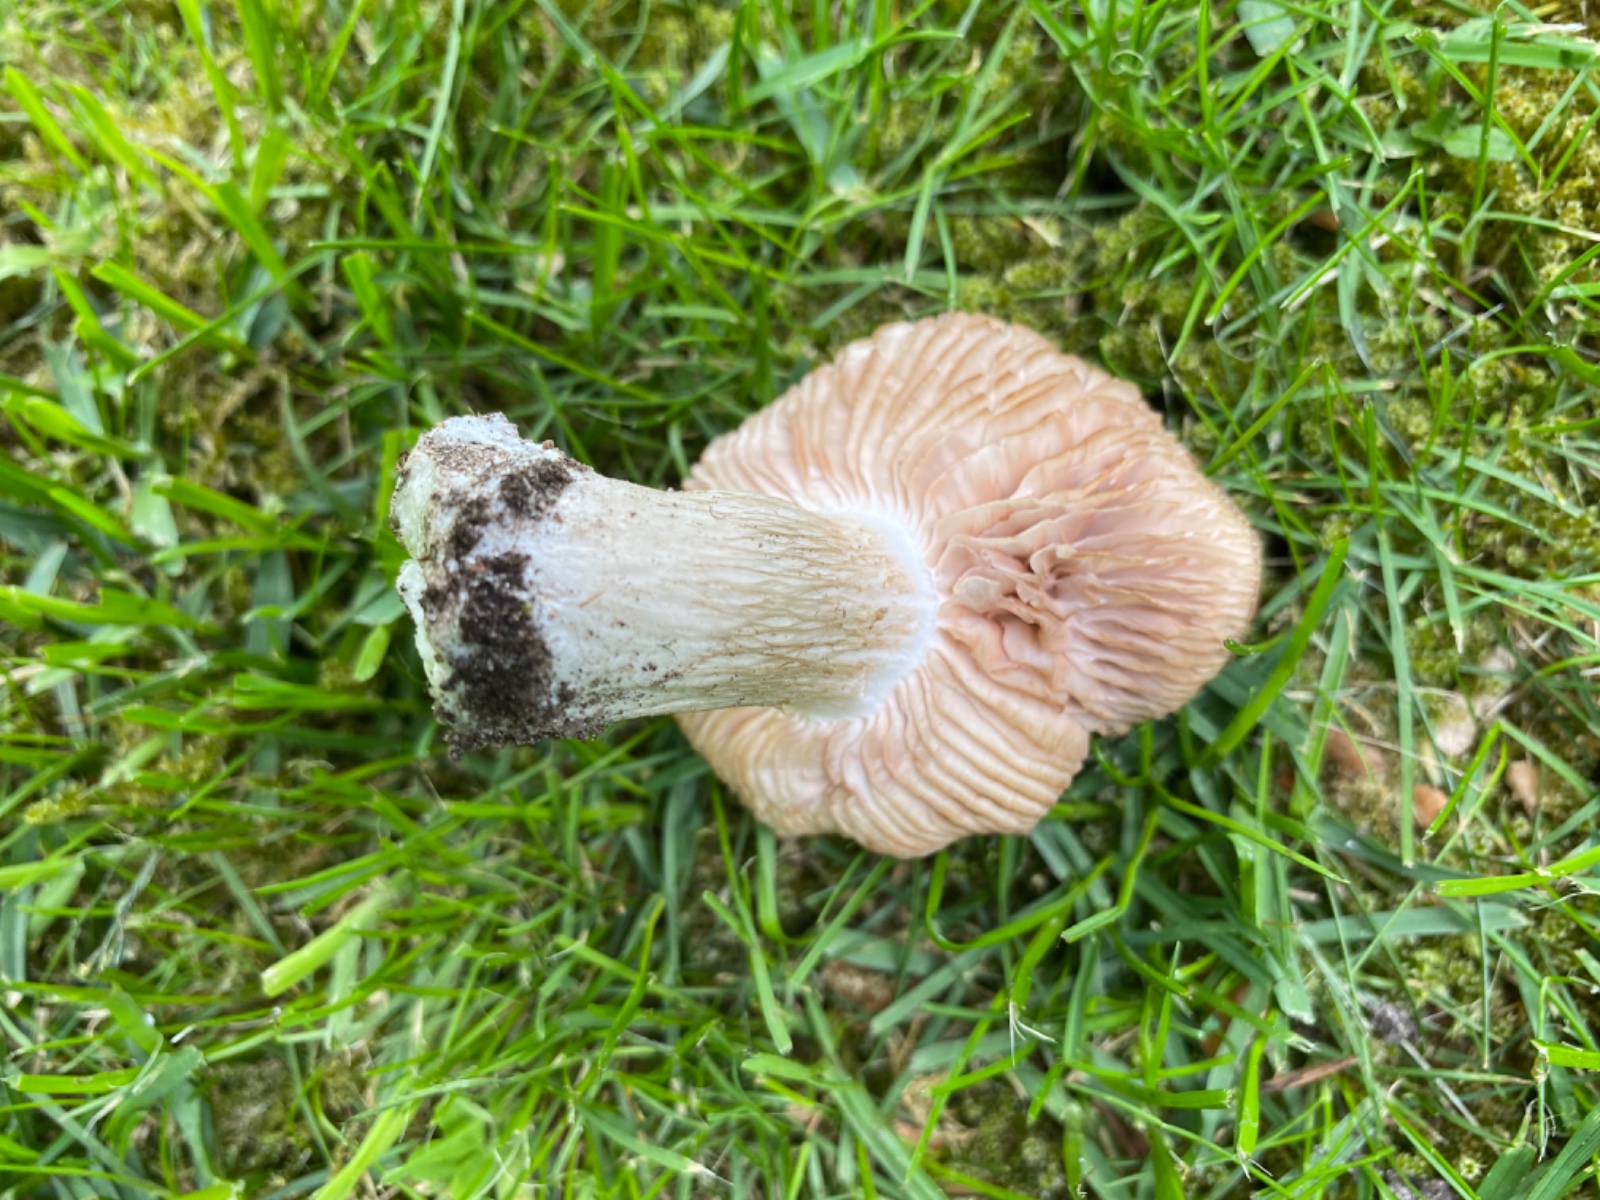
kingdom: Fungi
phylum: Basidiomycota
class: Agaricomycetes
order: Agaricales
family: Entolomataceae
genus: Entoloma
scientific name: Entoloma clypeatum
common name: flammet rødblad
